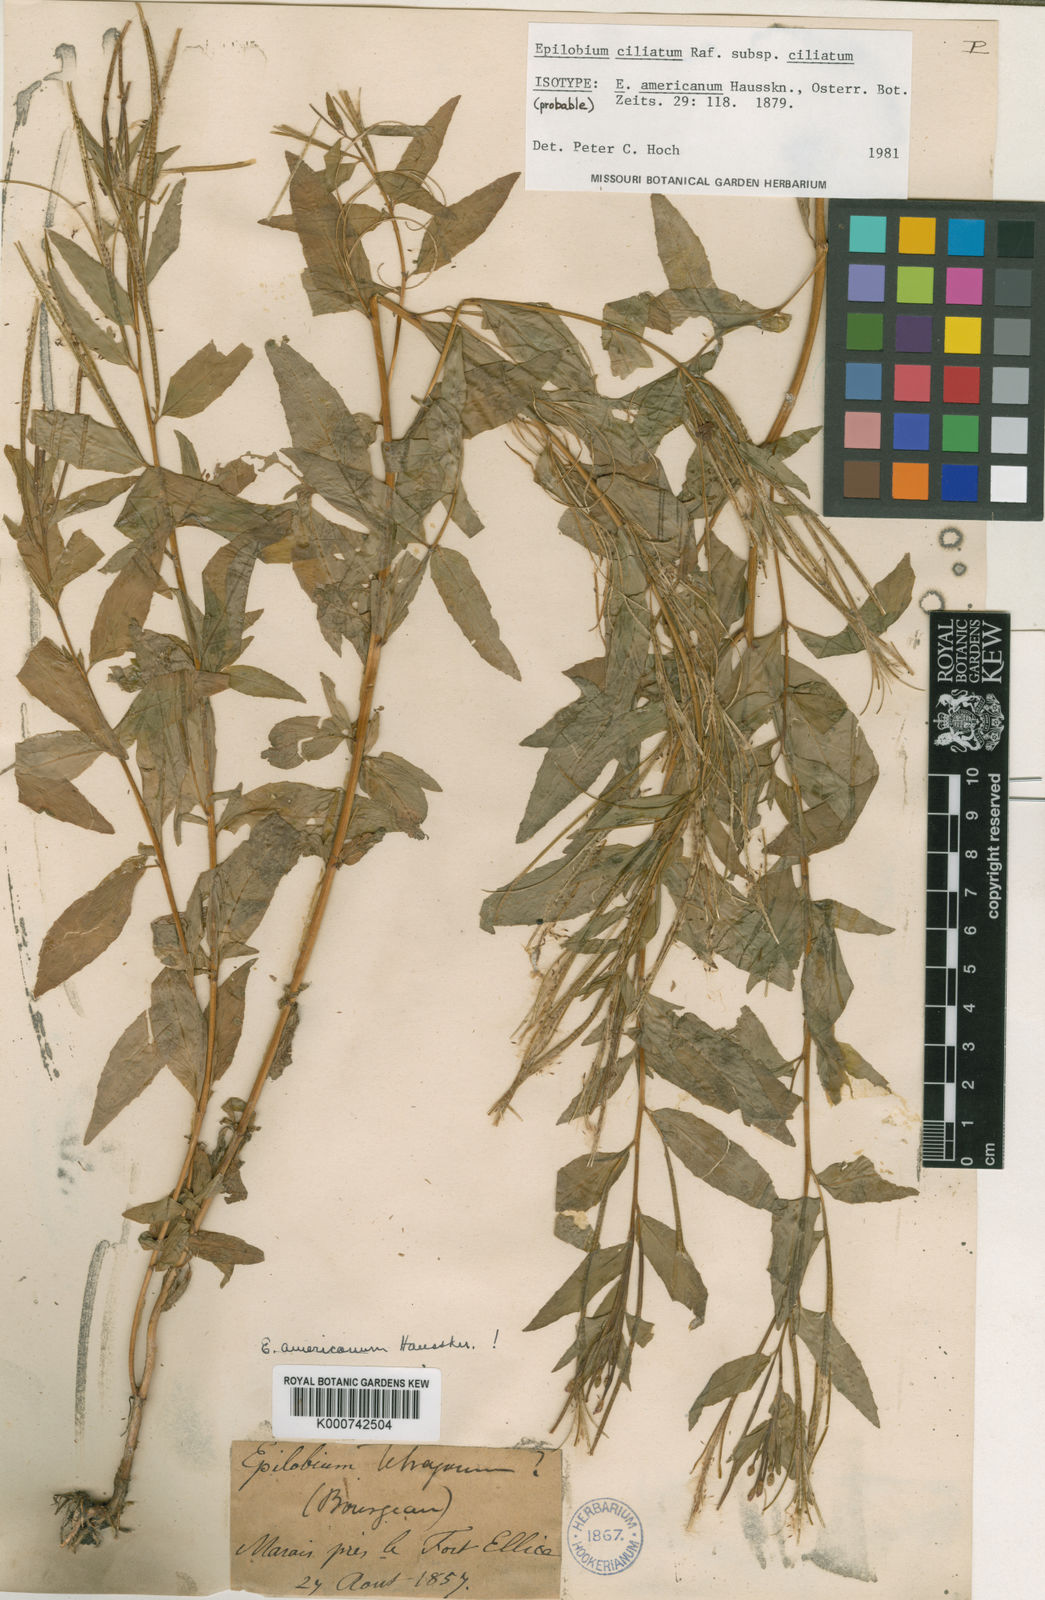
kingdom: Plantae
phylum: Tracheophyta
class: Magnoliopsida
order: Myrtales
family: Onagraceae
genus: Epilobium
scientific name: Epilobium ciliatum
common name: American willowherb
